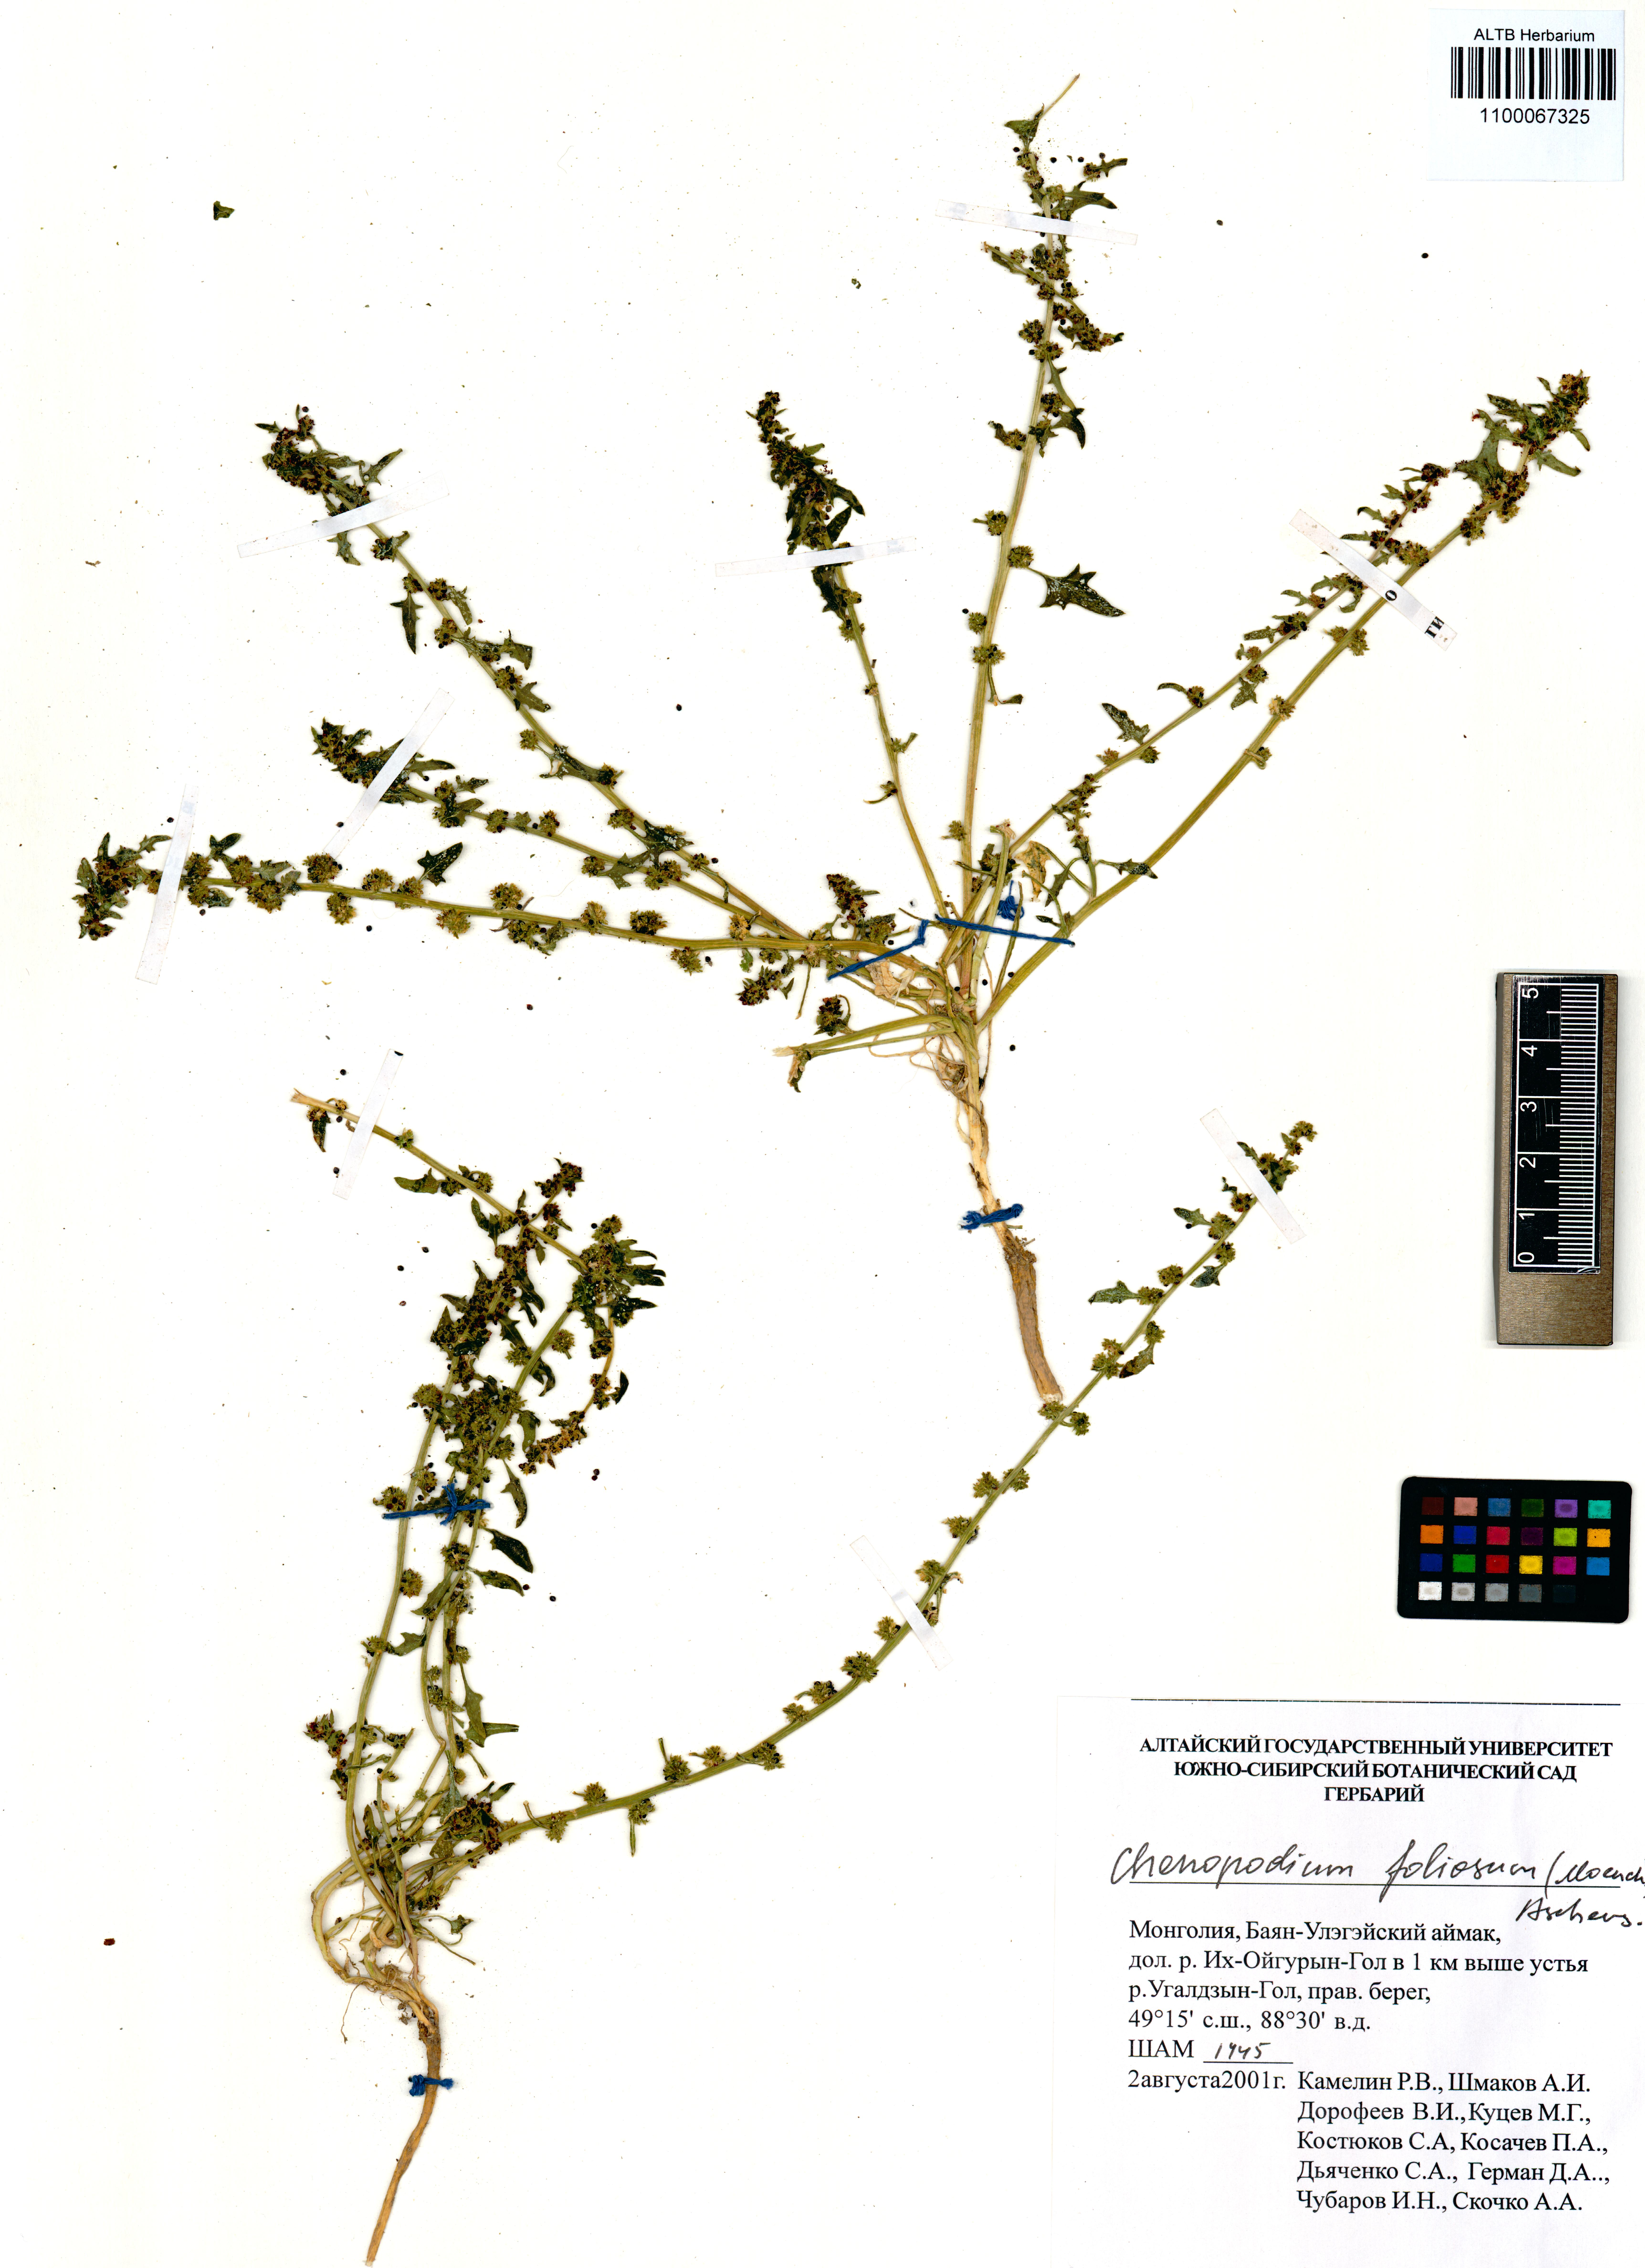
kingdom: Plantae
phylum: Tracheophyta
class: Magnoliopsida
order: Caryophyllales
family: Amaranthaceae
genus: Blitum
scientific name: Blitum virgatum
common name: Strawberry goosefoot
